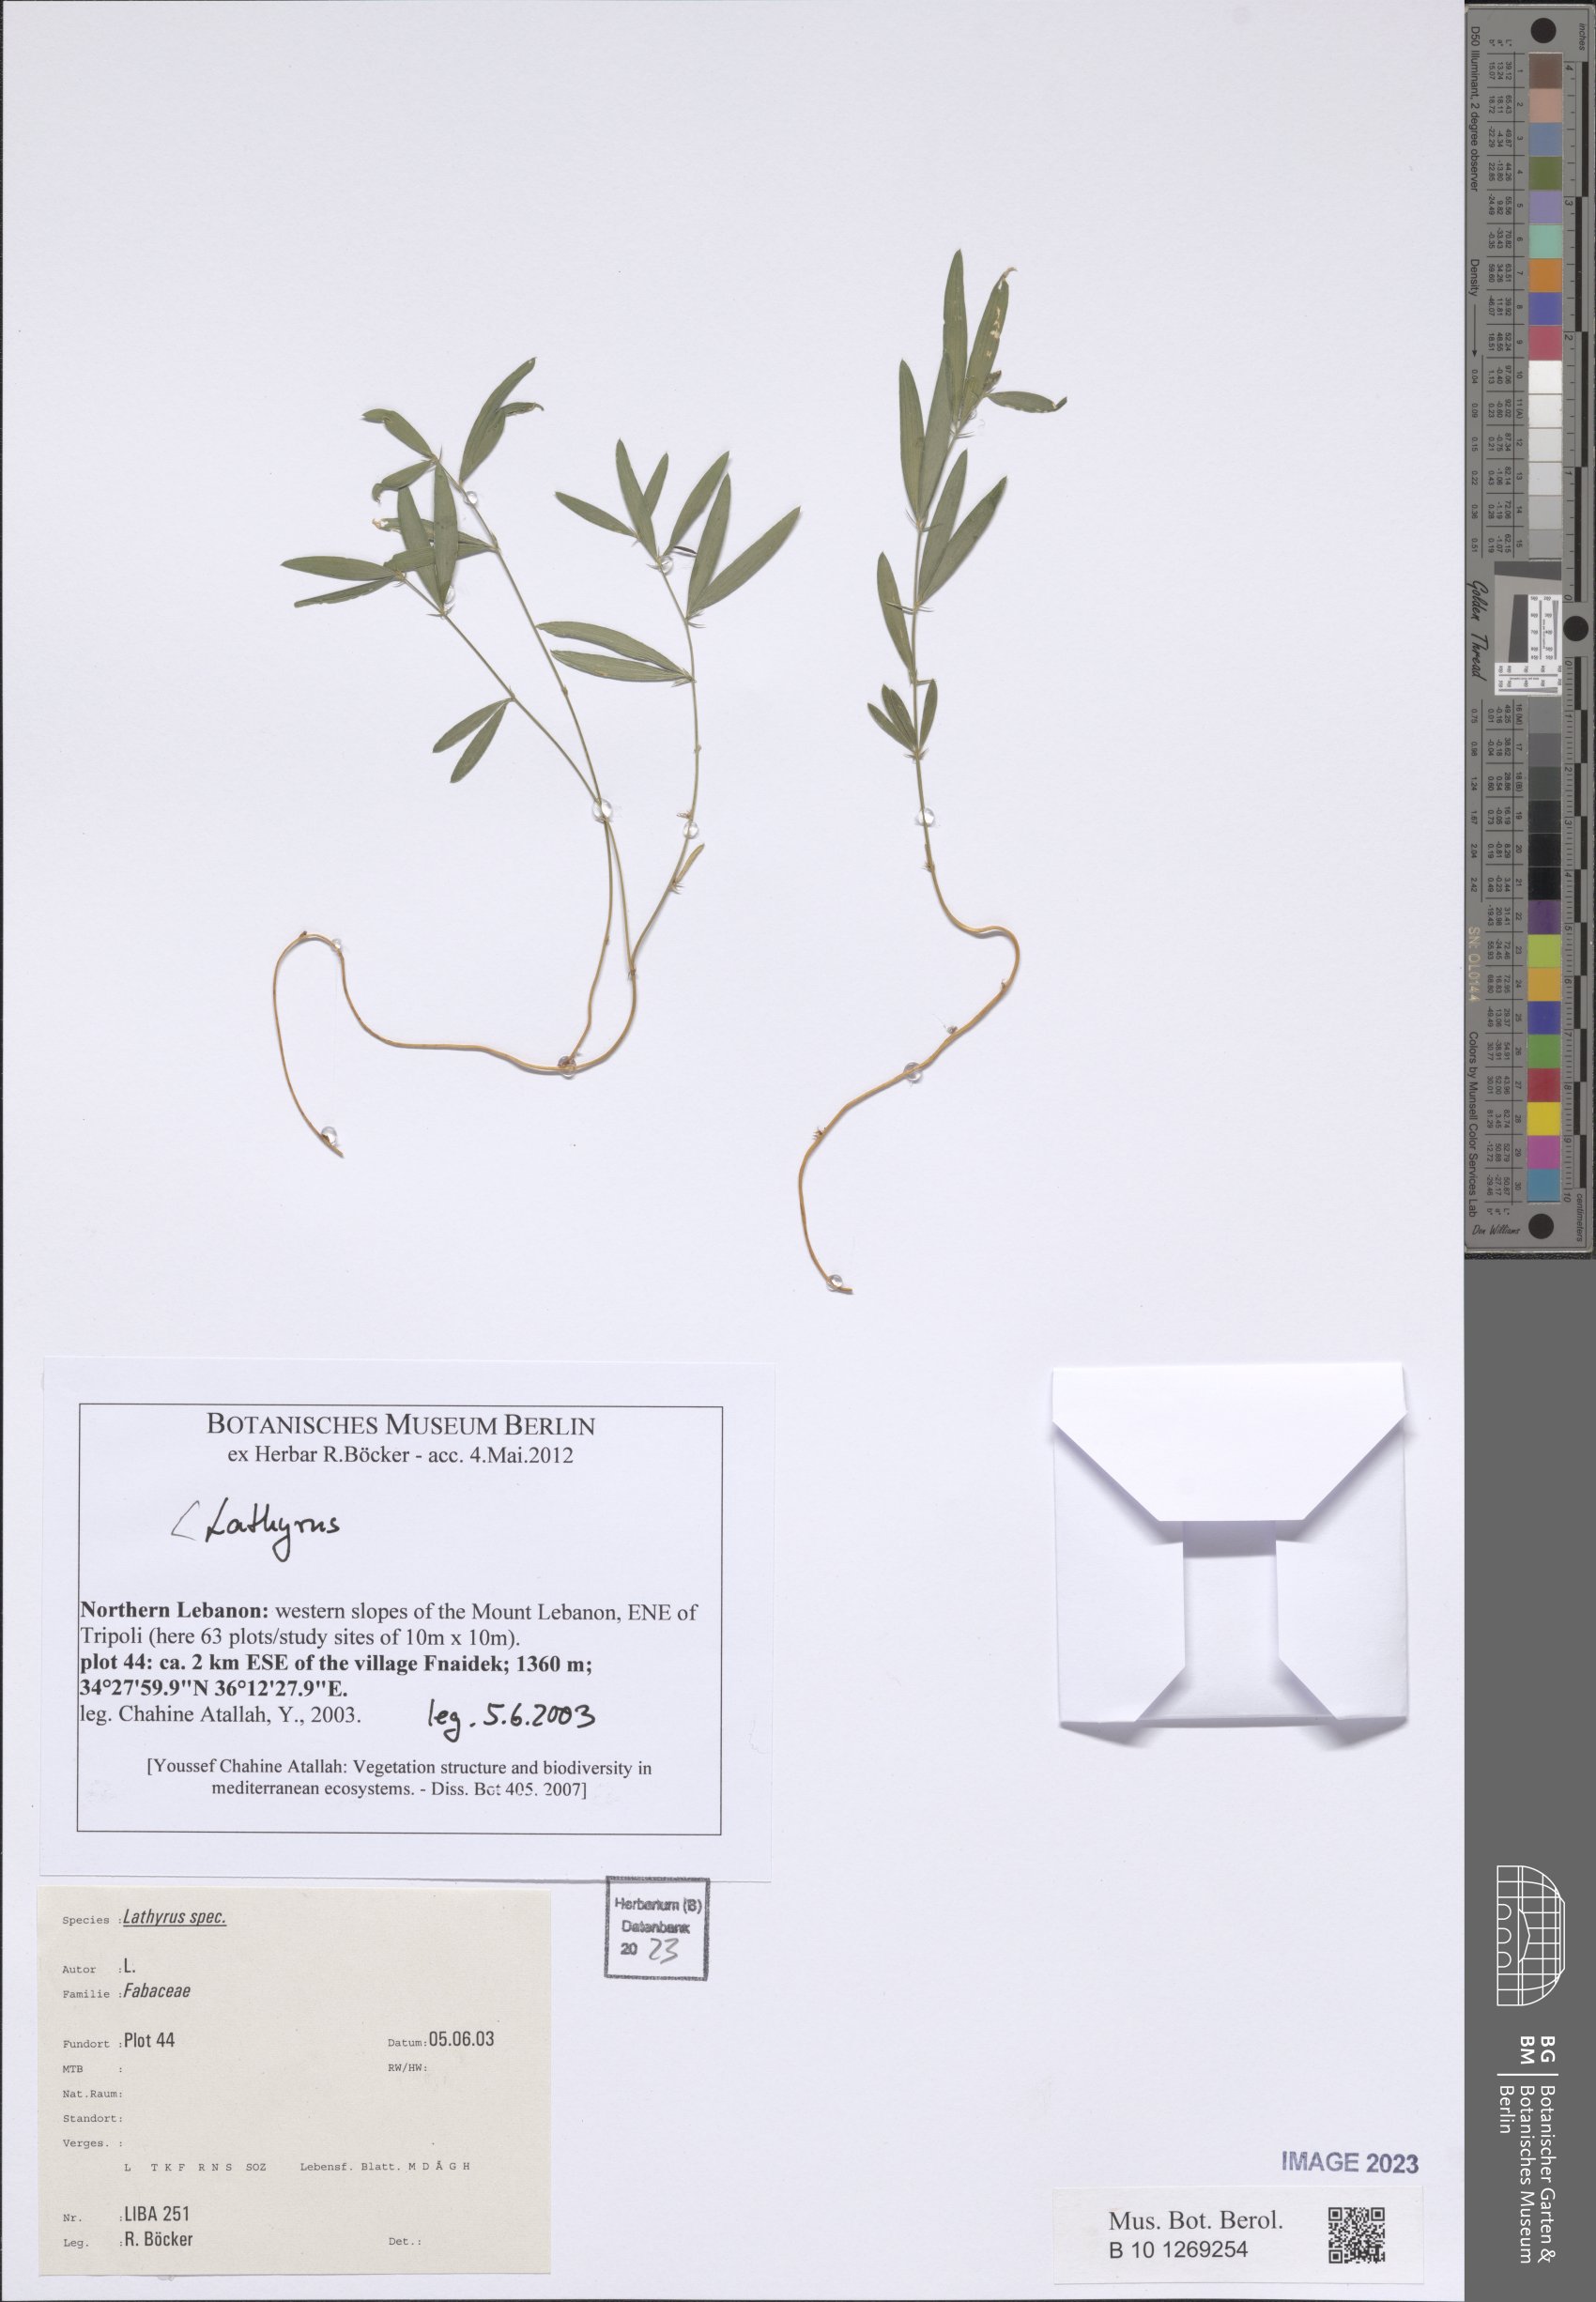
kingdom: Plantae
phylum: Tracheophyta
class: Magnoliopsida
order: Fabales
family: Fabaceae
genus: Lathyrus
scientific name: Lathyrus
